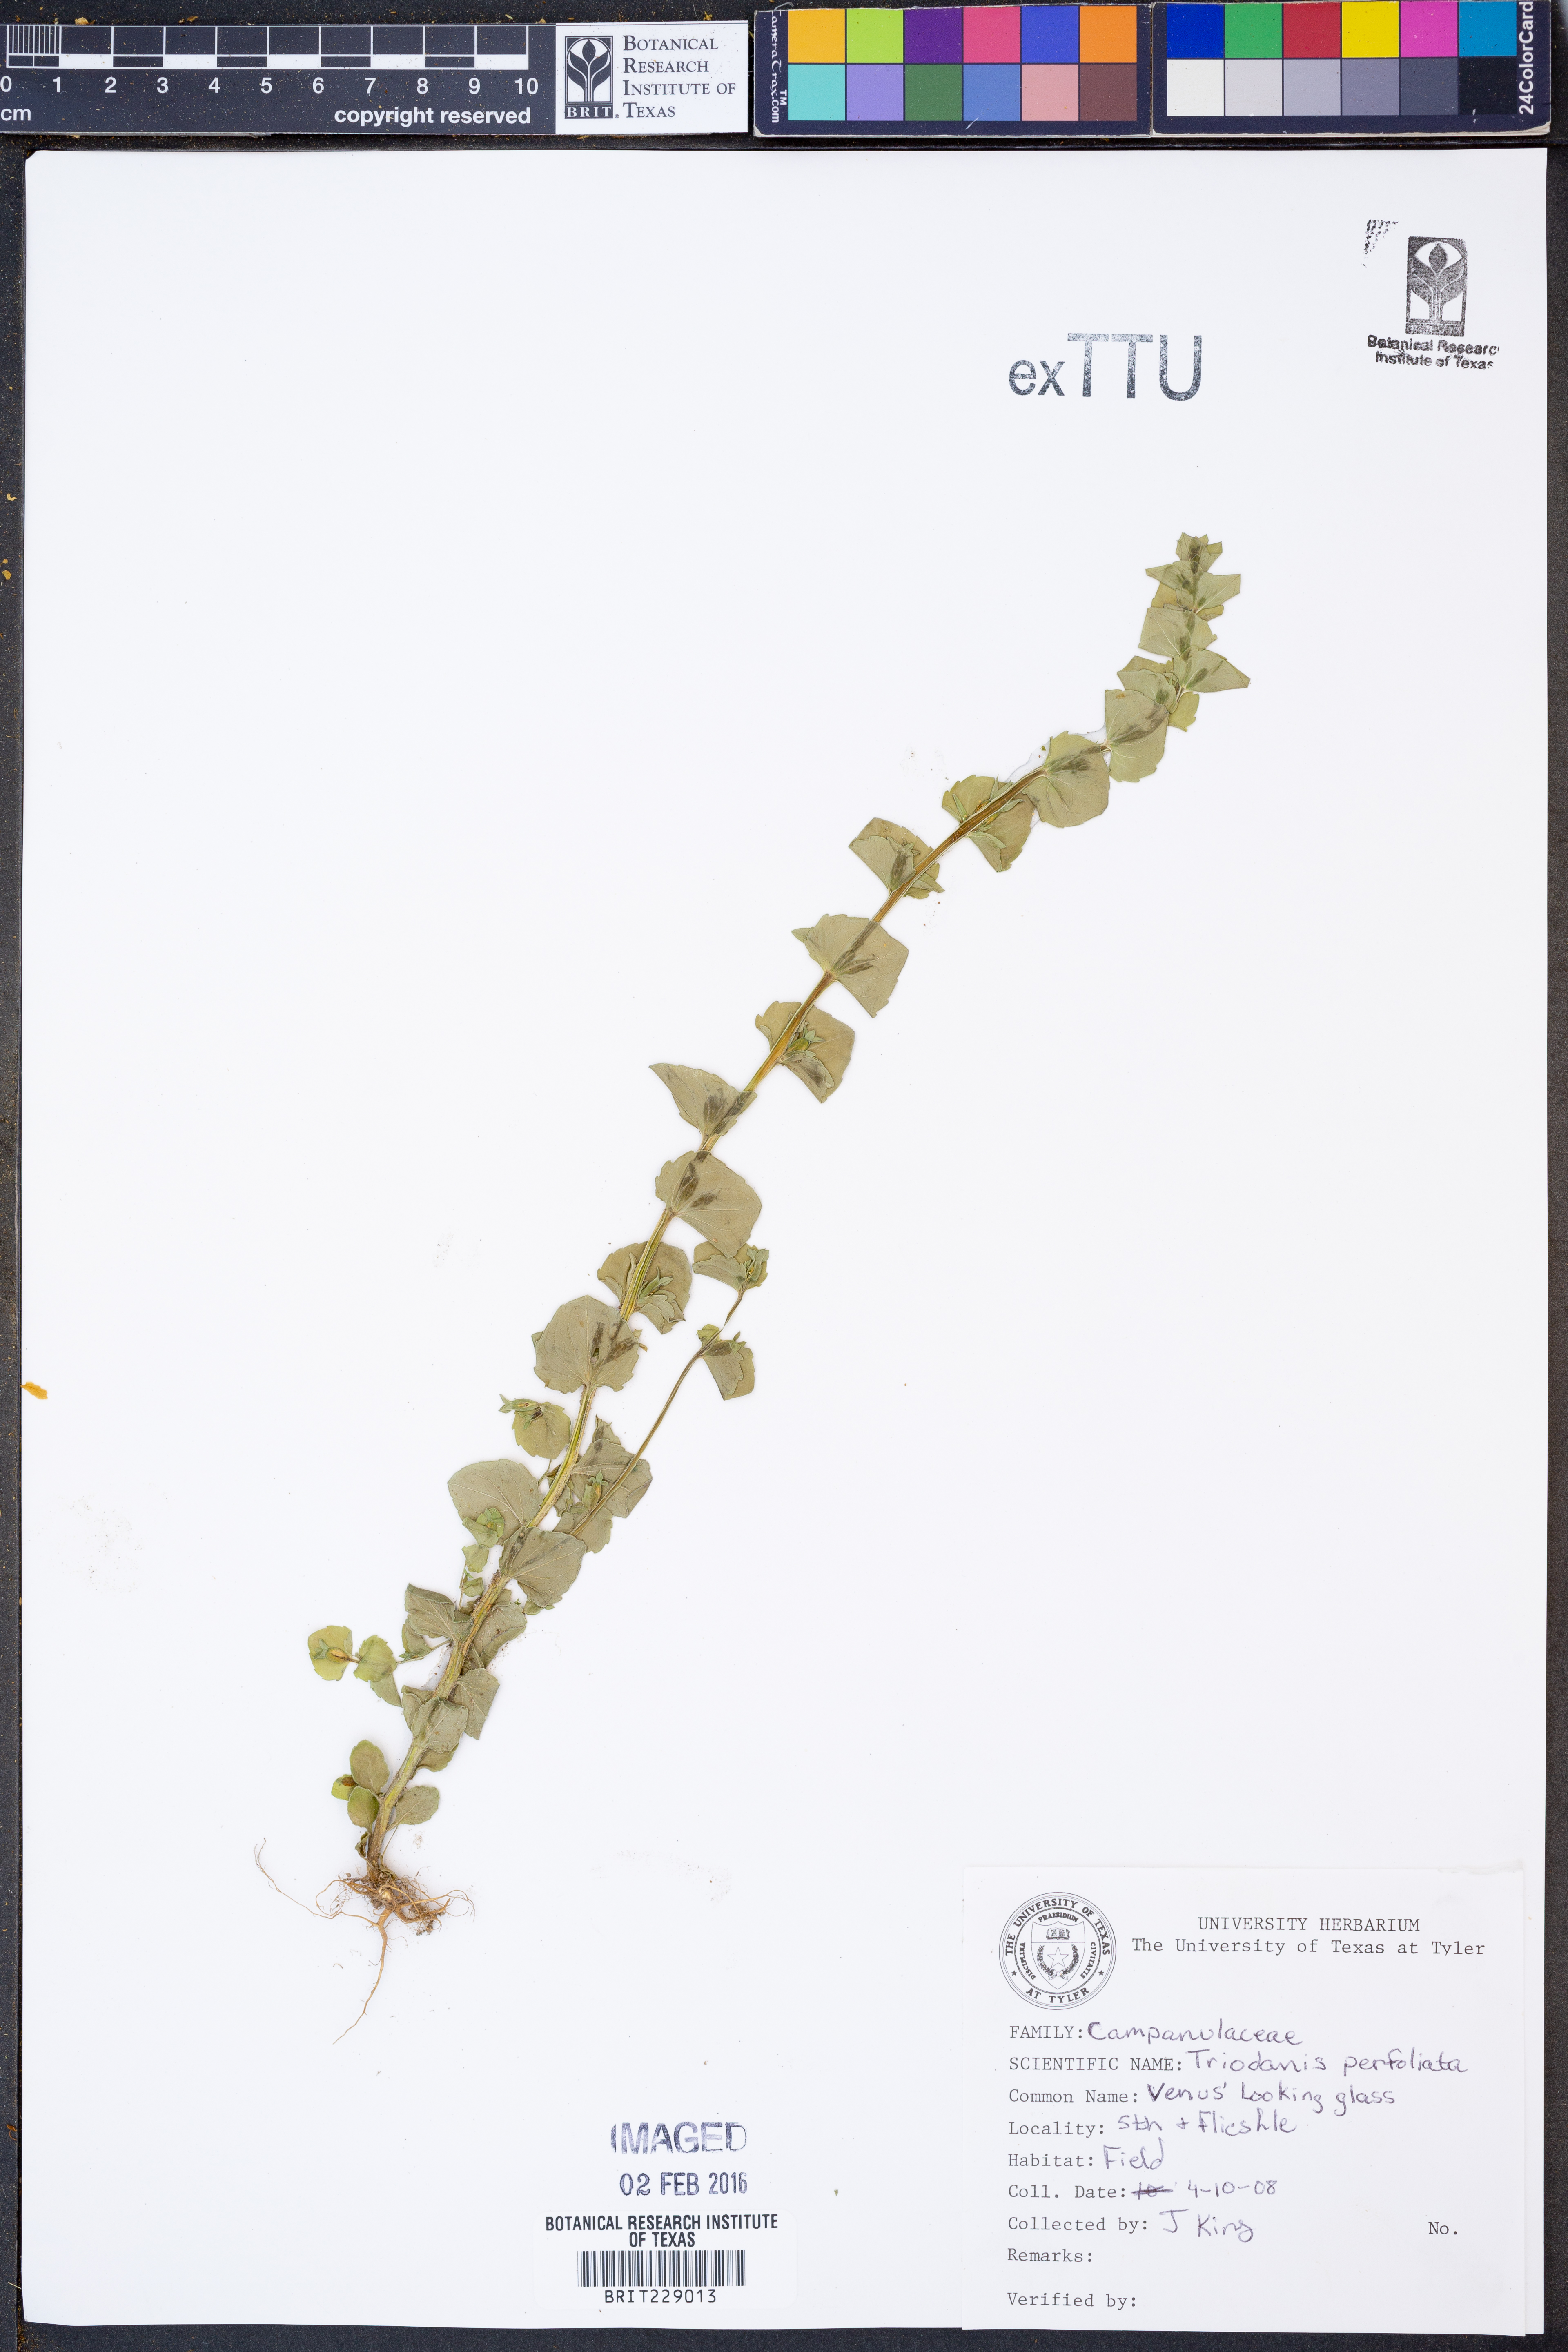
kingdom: Plantae
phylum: Tracheophyta
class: Magnoliopsida
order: Asterales
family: Campanulaceae
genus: Triodanis
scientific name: Triodanis perfoliata
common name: Clasping venus' looking-glass
